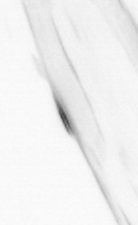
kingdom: Animalia
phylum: Chaetognatha
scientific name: Chaetognatha
